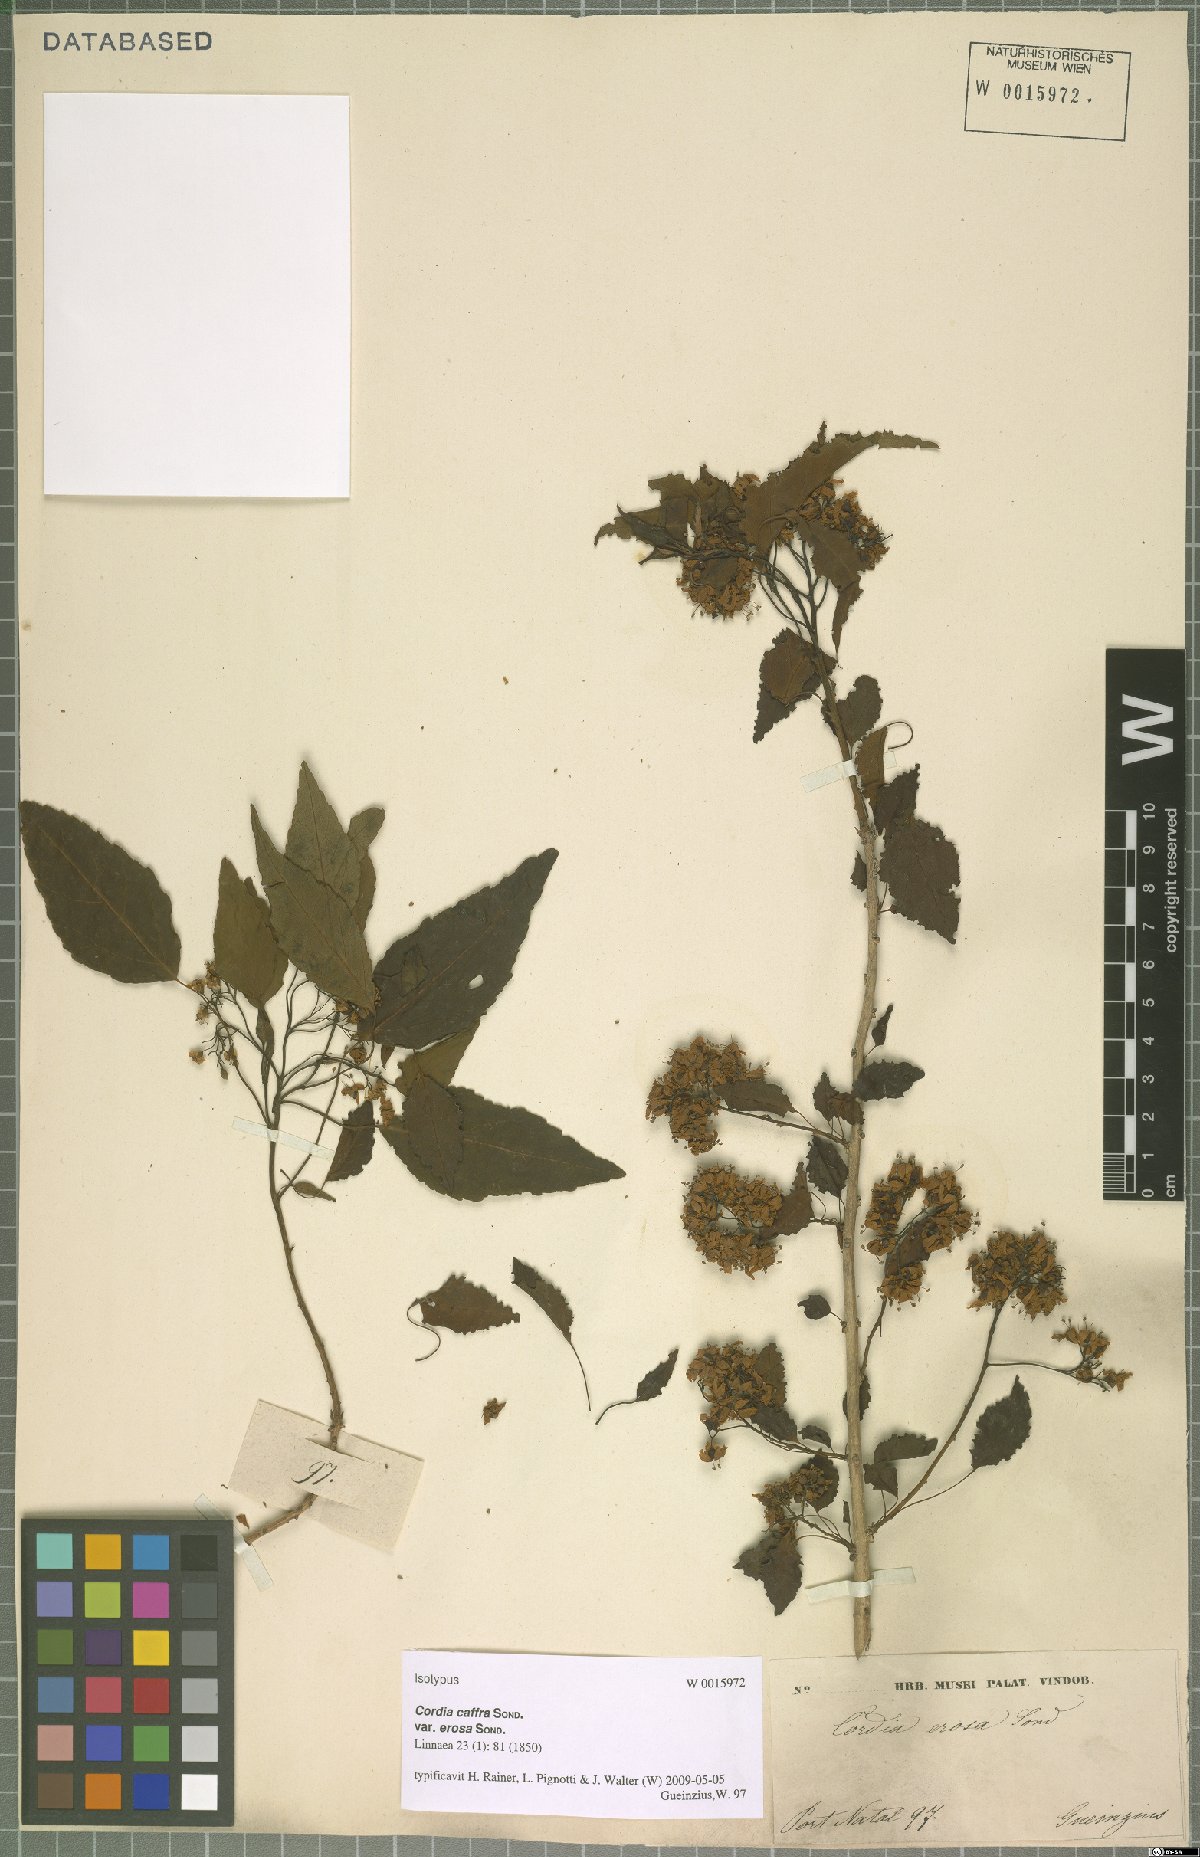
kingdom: Plantae
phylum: Tracheophyta
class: Magnoliopsida
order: Boraginales
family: Cordiaceae
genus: Cordia
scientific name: Cordia caffra
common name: Septee tree
